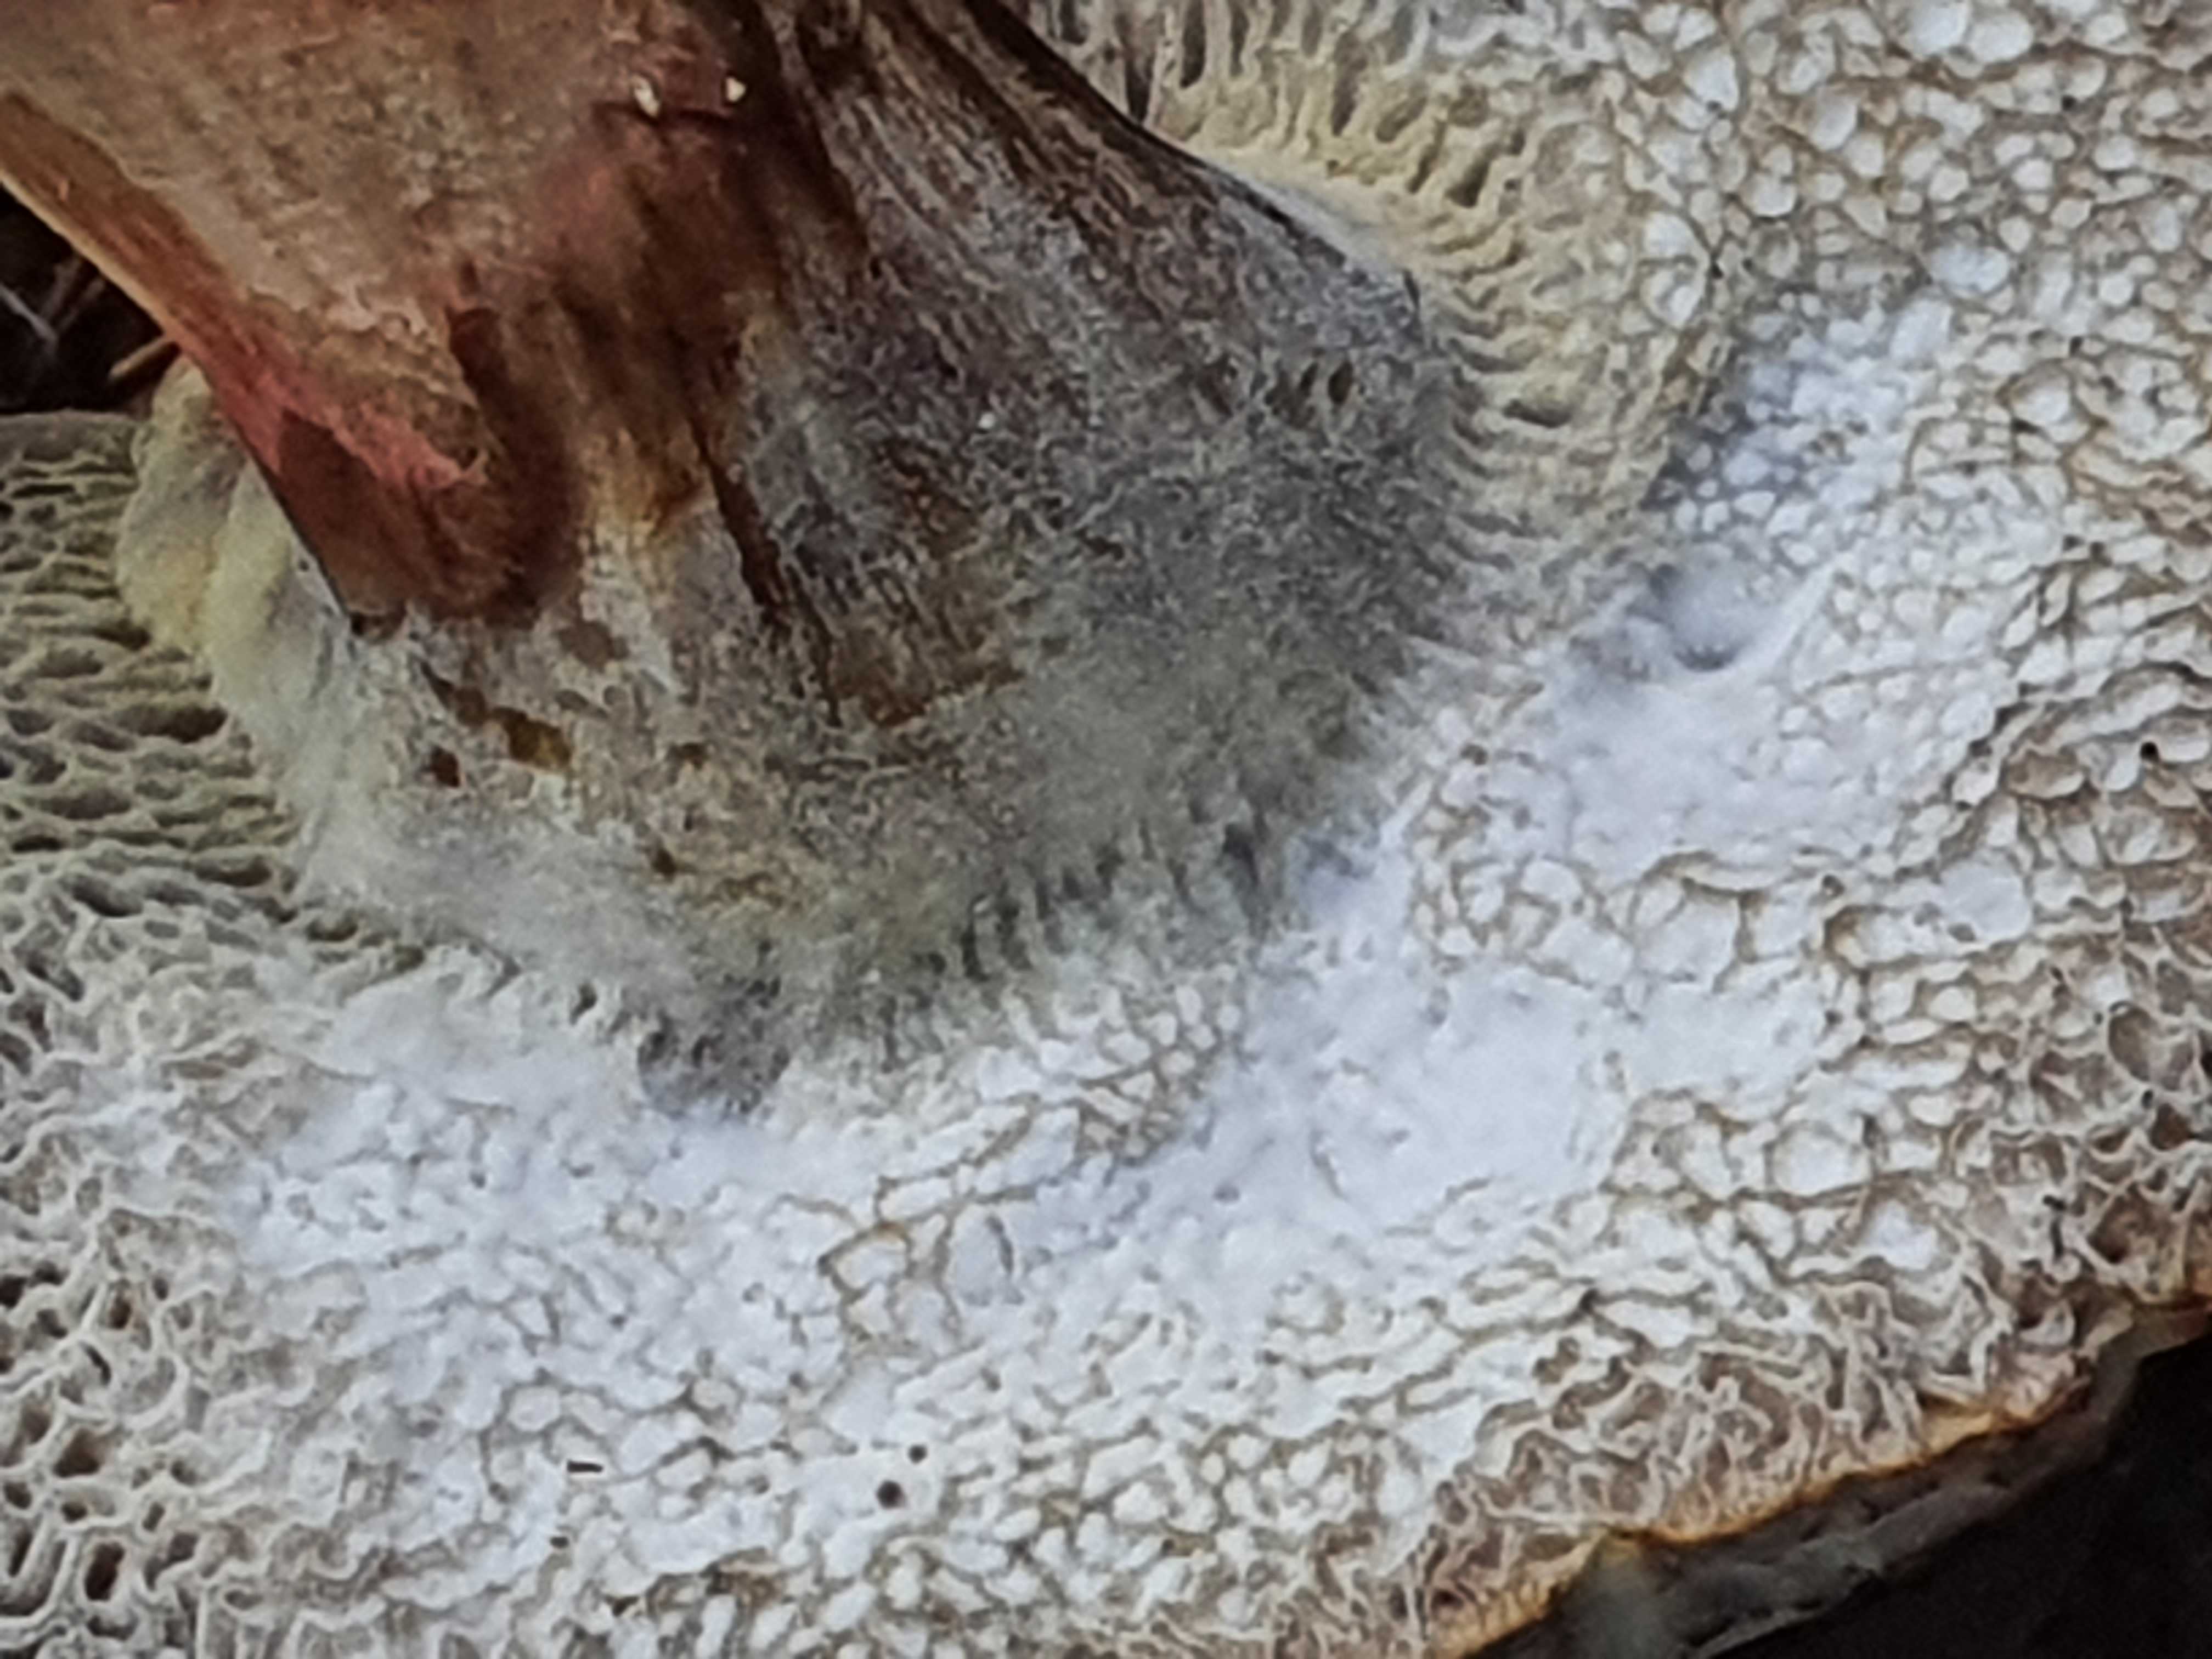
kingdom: Fungi
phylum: Ascomycota
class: Sordariomycetes
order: Hypocreales
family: Hypocreaceae
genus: Hypomyces
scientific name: Hypomyces microspermus
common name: dværgrørhat-snylteskorpe
